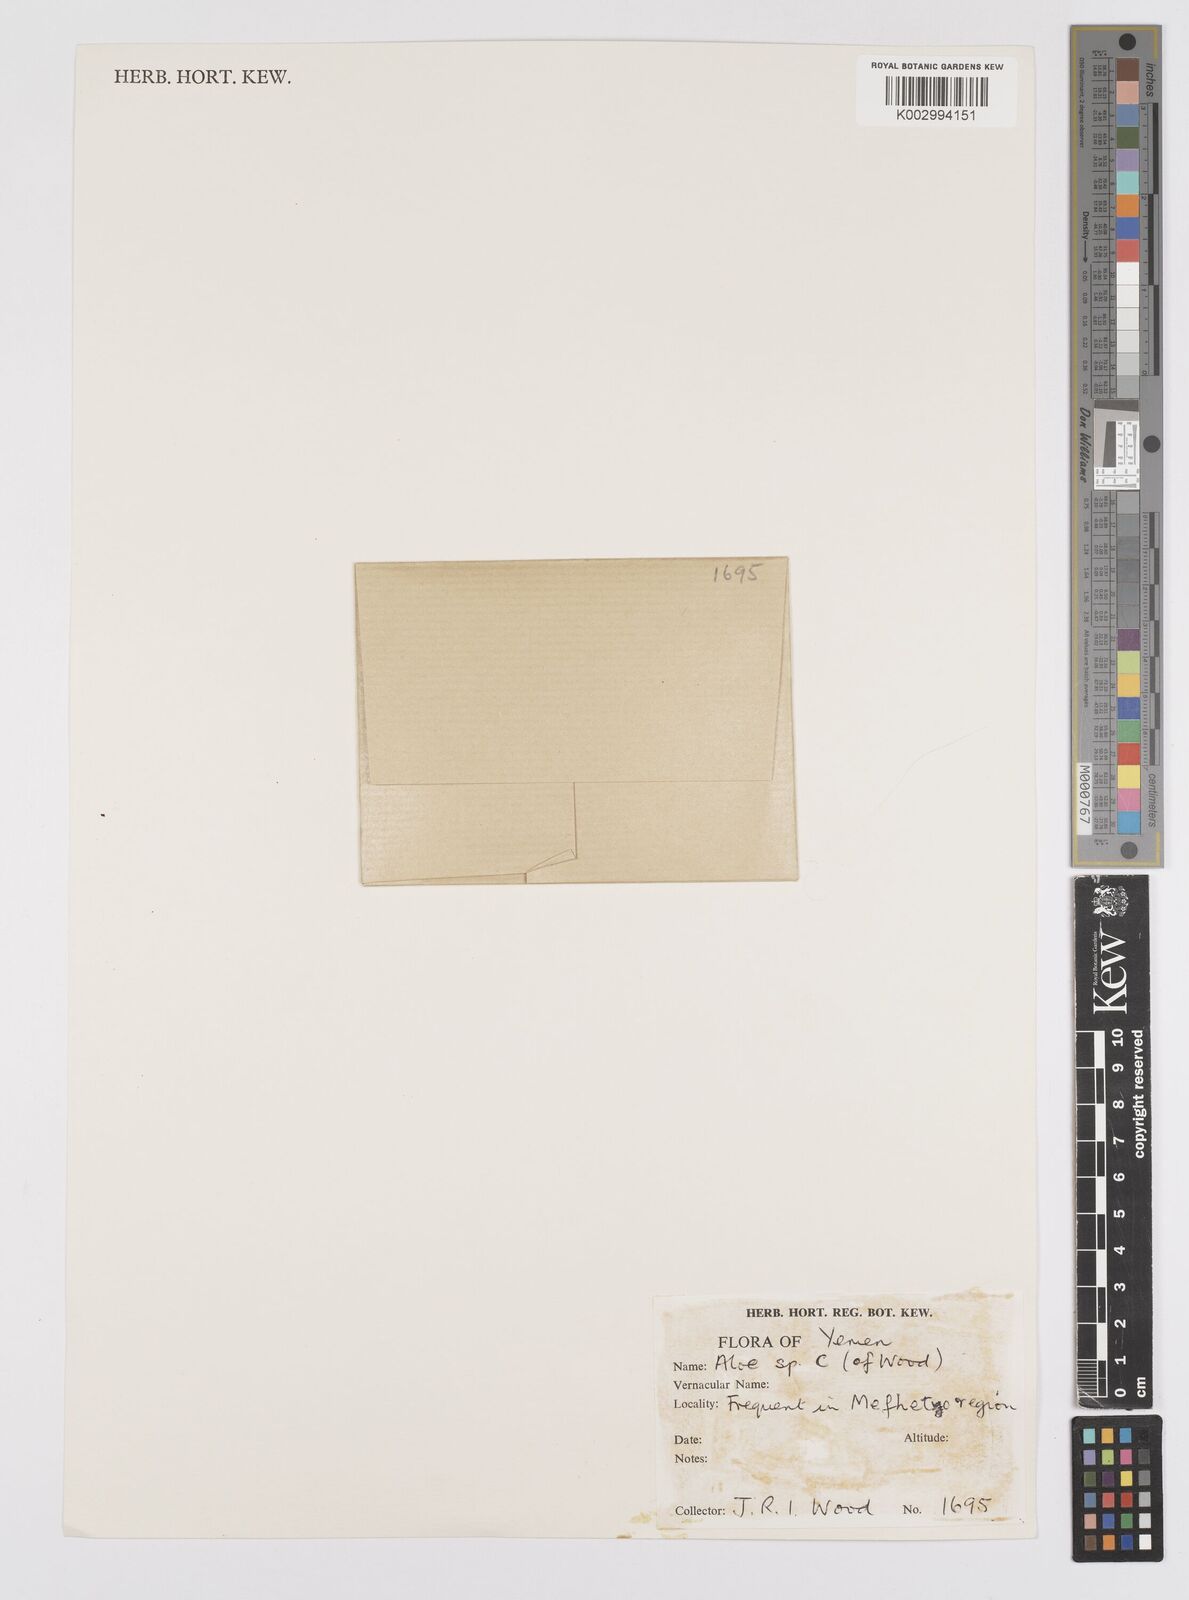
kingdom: Plantae
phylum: Tracheophyta
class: Liliopsida
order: Asparagales
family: Asphodelaceae
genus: Aloe
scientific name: Aloe menachensis
